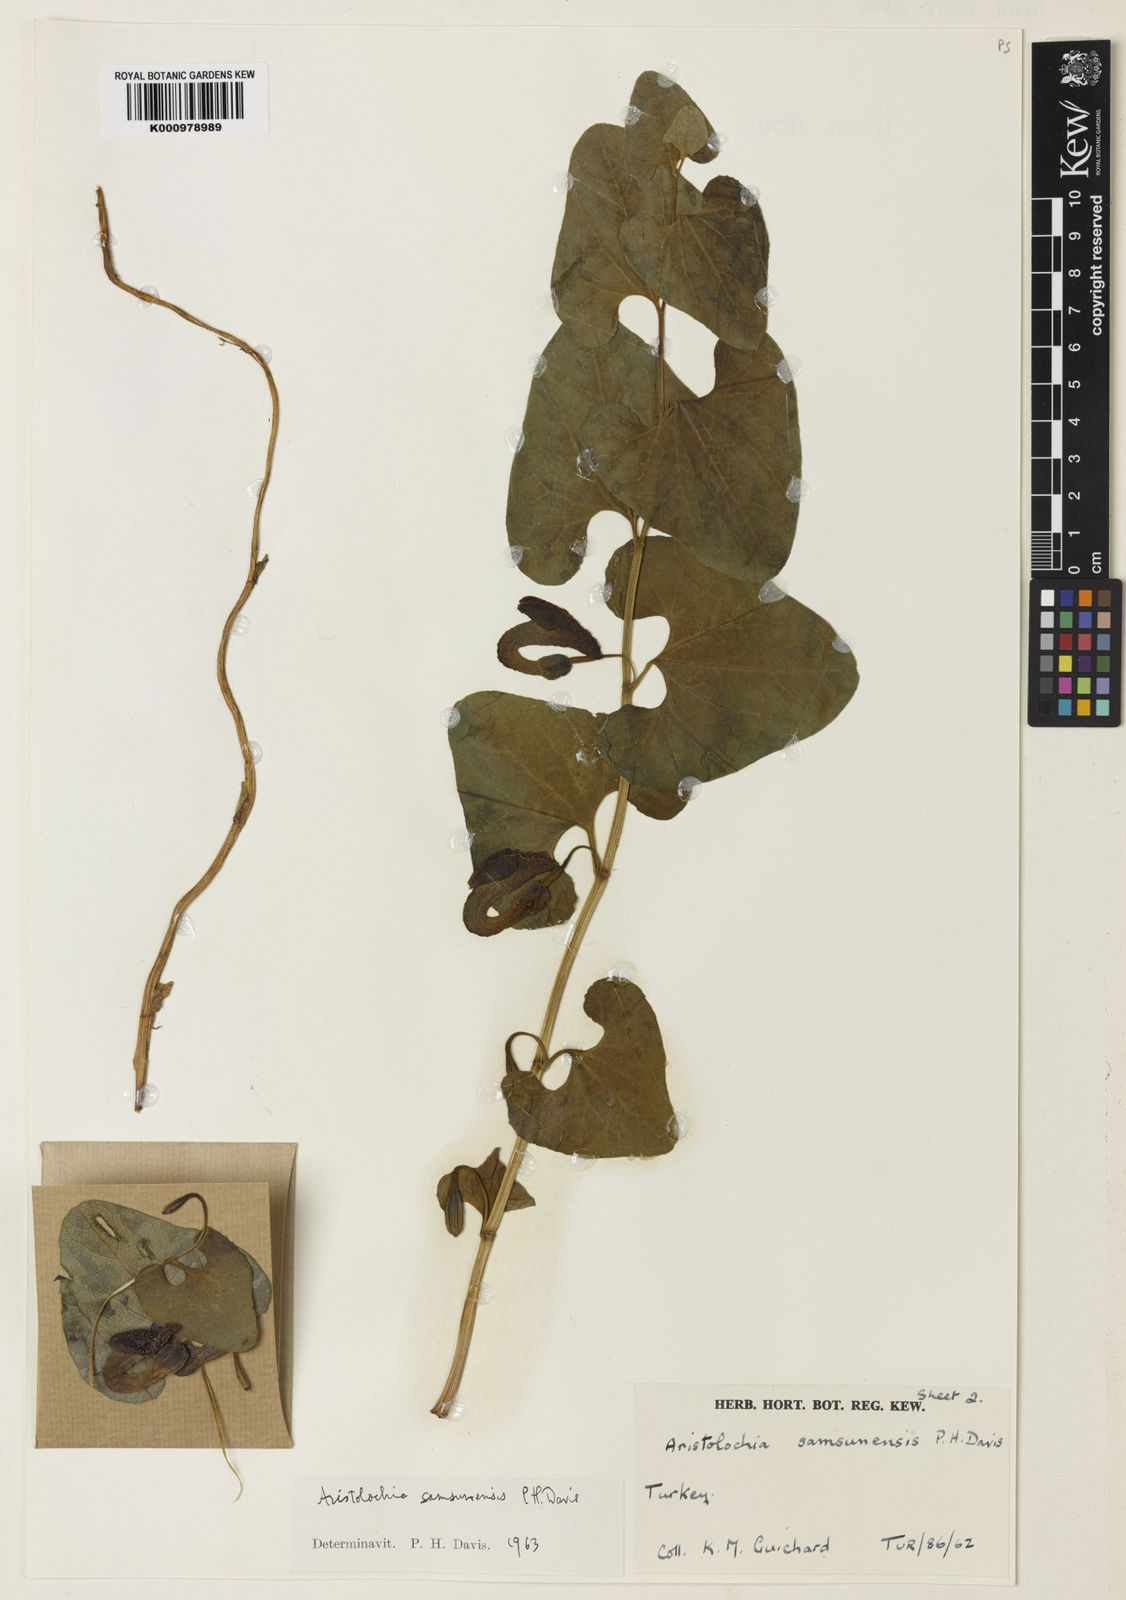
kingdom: Plantae
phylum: Tracheophyta
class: Magnoliopsida
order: Piperales
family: Aristolochiaceae
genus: Aristolochia
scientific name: Aristolochia bodamae
